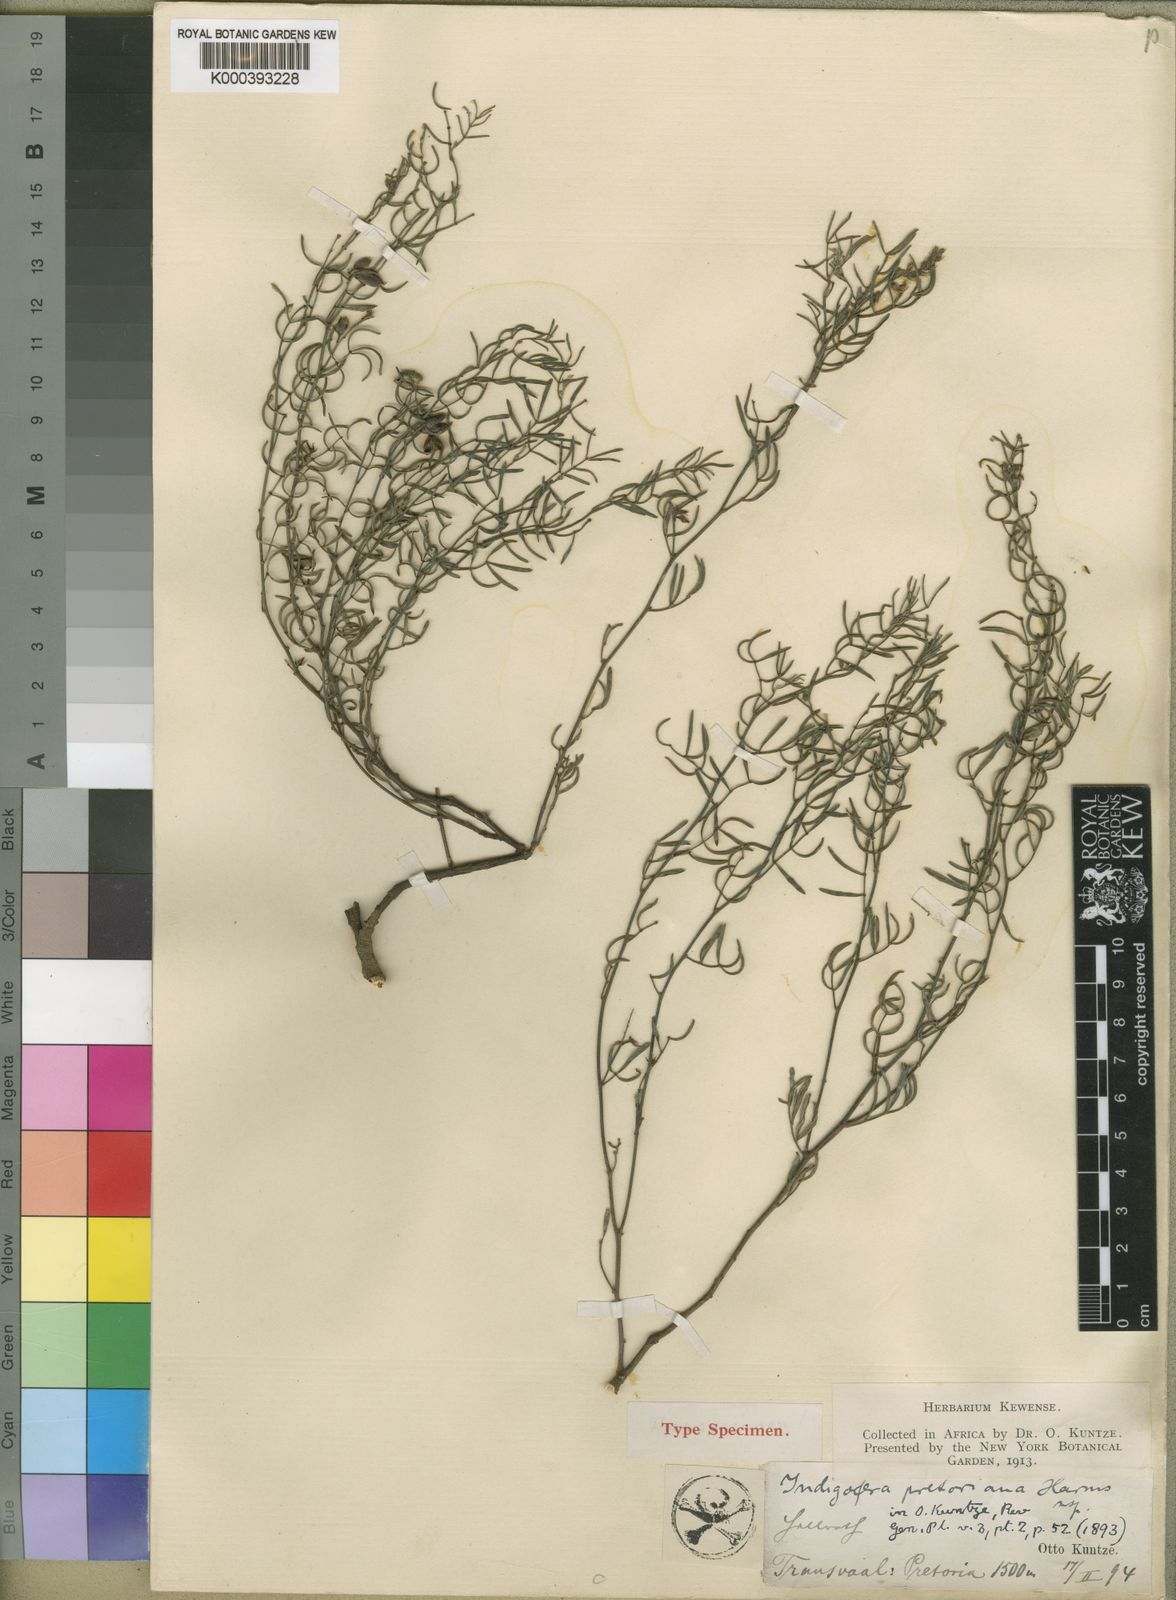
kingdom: Plantae
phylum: Tracheophyta
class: Magnoliopsida
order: Fabales
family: Fabaceae
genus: Indigofera
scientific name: Indigofera pretoriana
